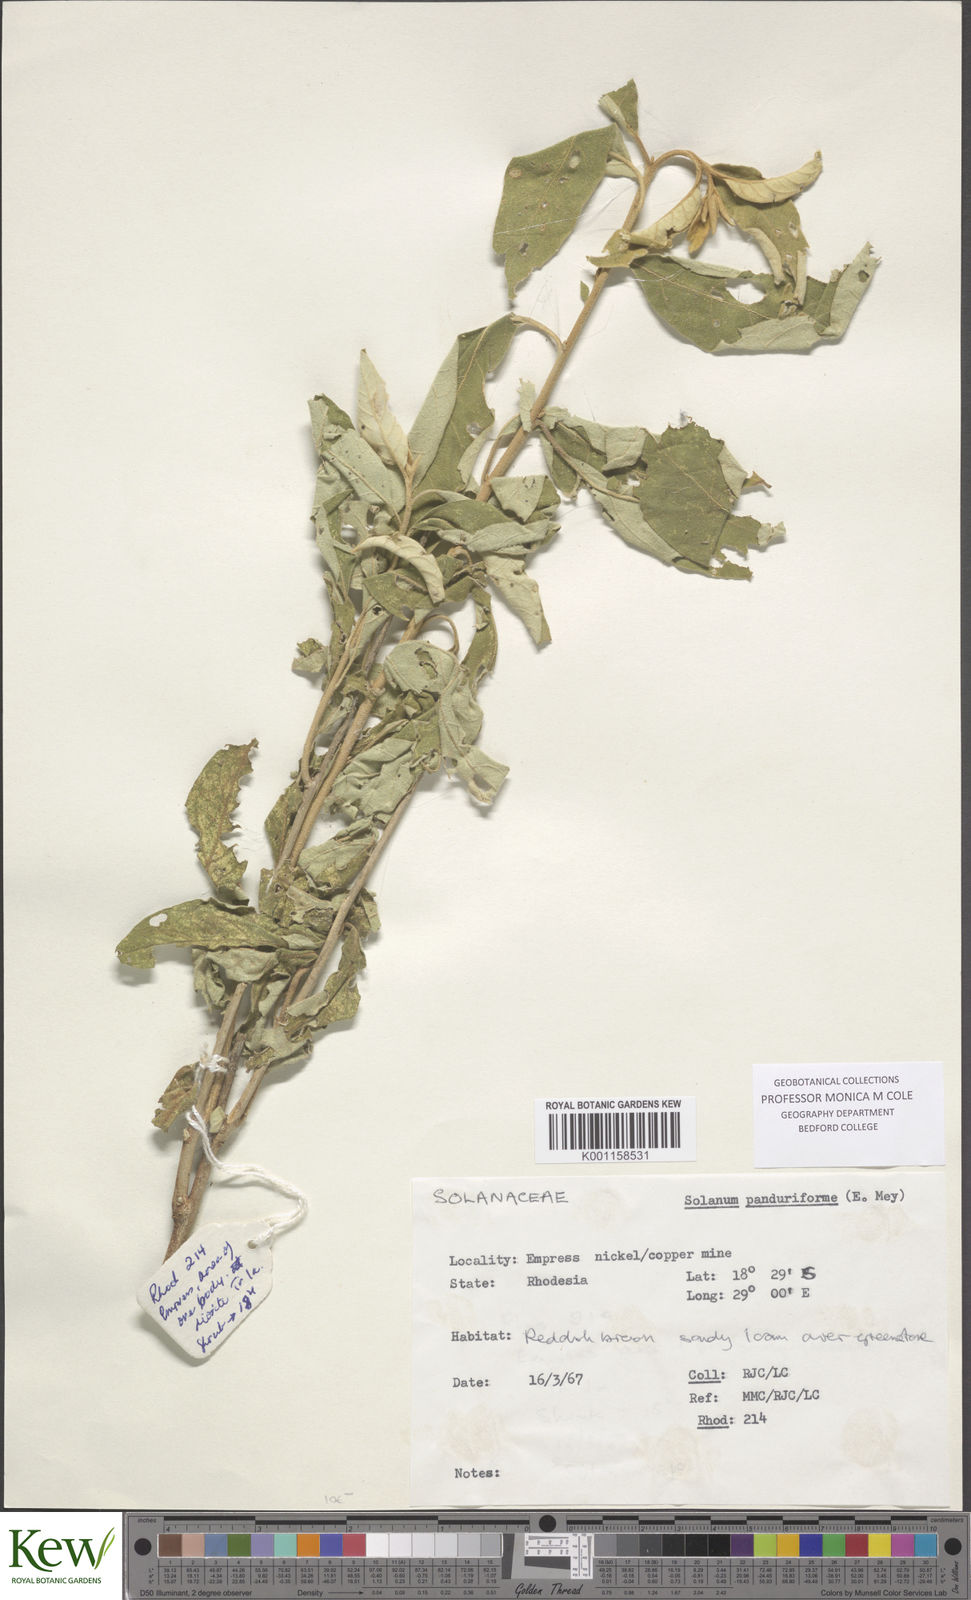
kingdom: Plantae
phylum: Tracheophyta
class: Magnoliopsida
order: Solanales
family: Solanaceae
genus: Solanum
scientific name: Solanum campylacanthum
